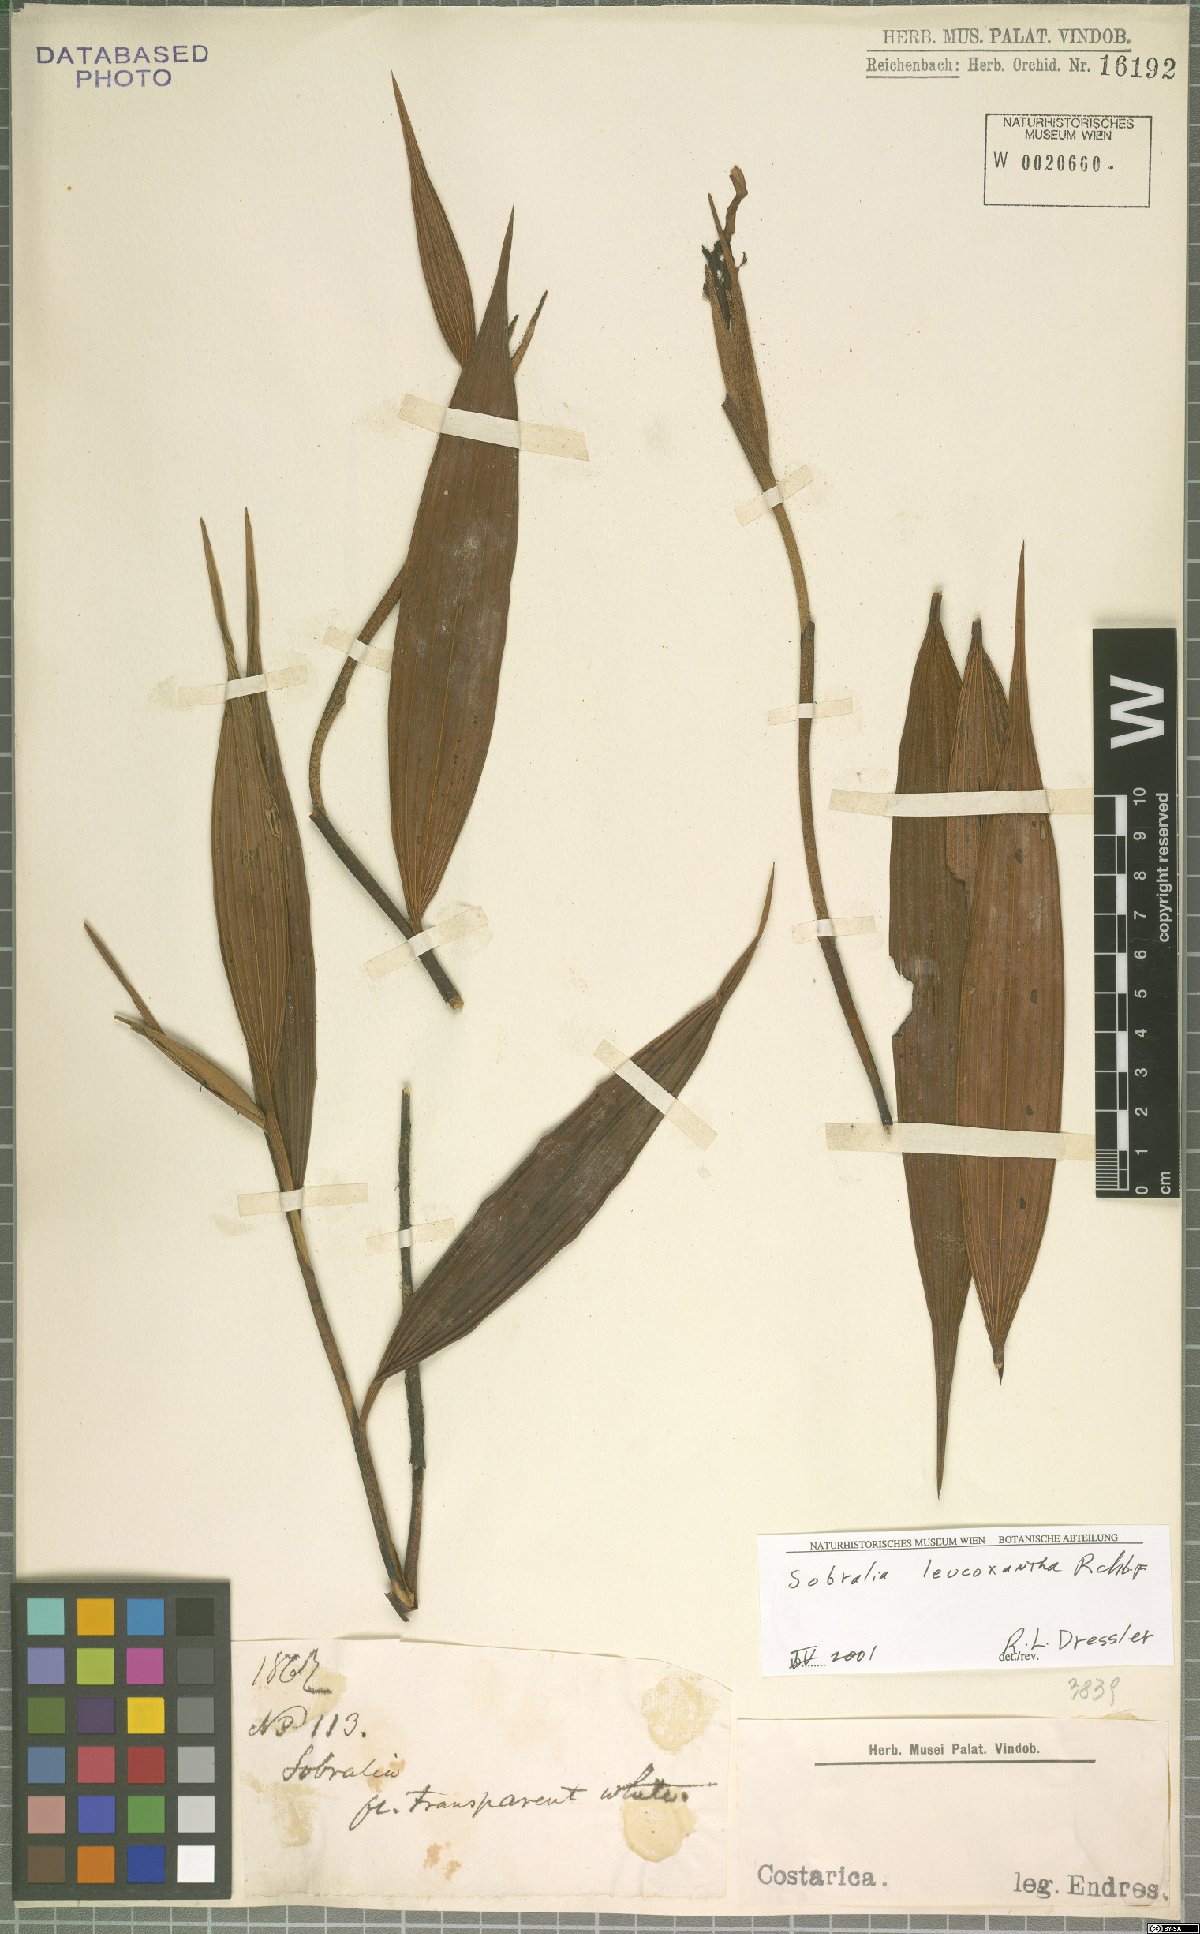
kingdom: Plantae
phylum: Tracheophyta
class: Liliopsida
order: Asparagales
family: Orchidaceae
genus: Sobralia
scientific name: Sobralia leucoxantha
